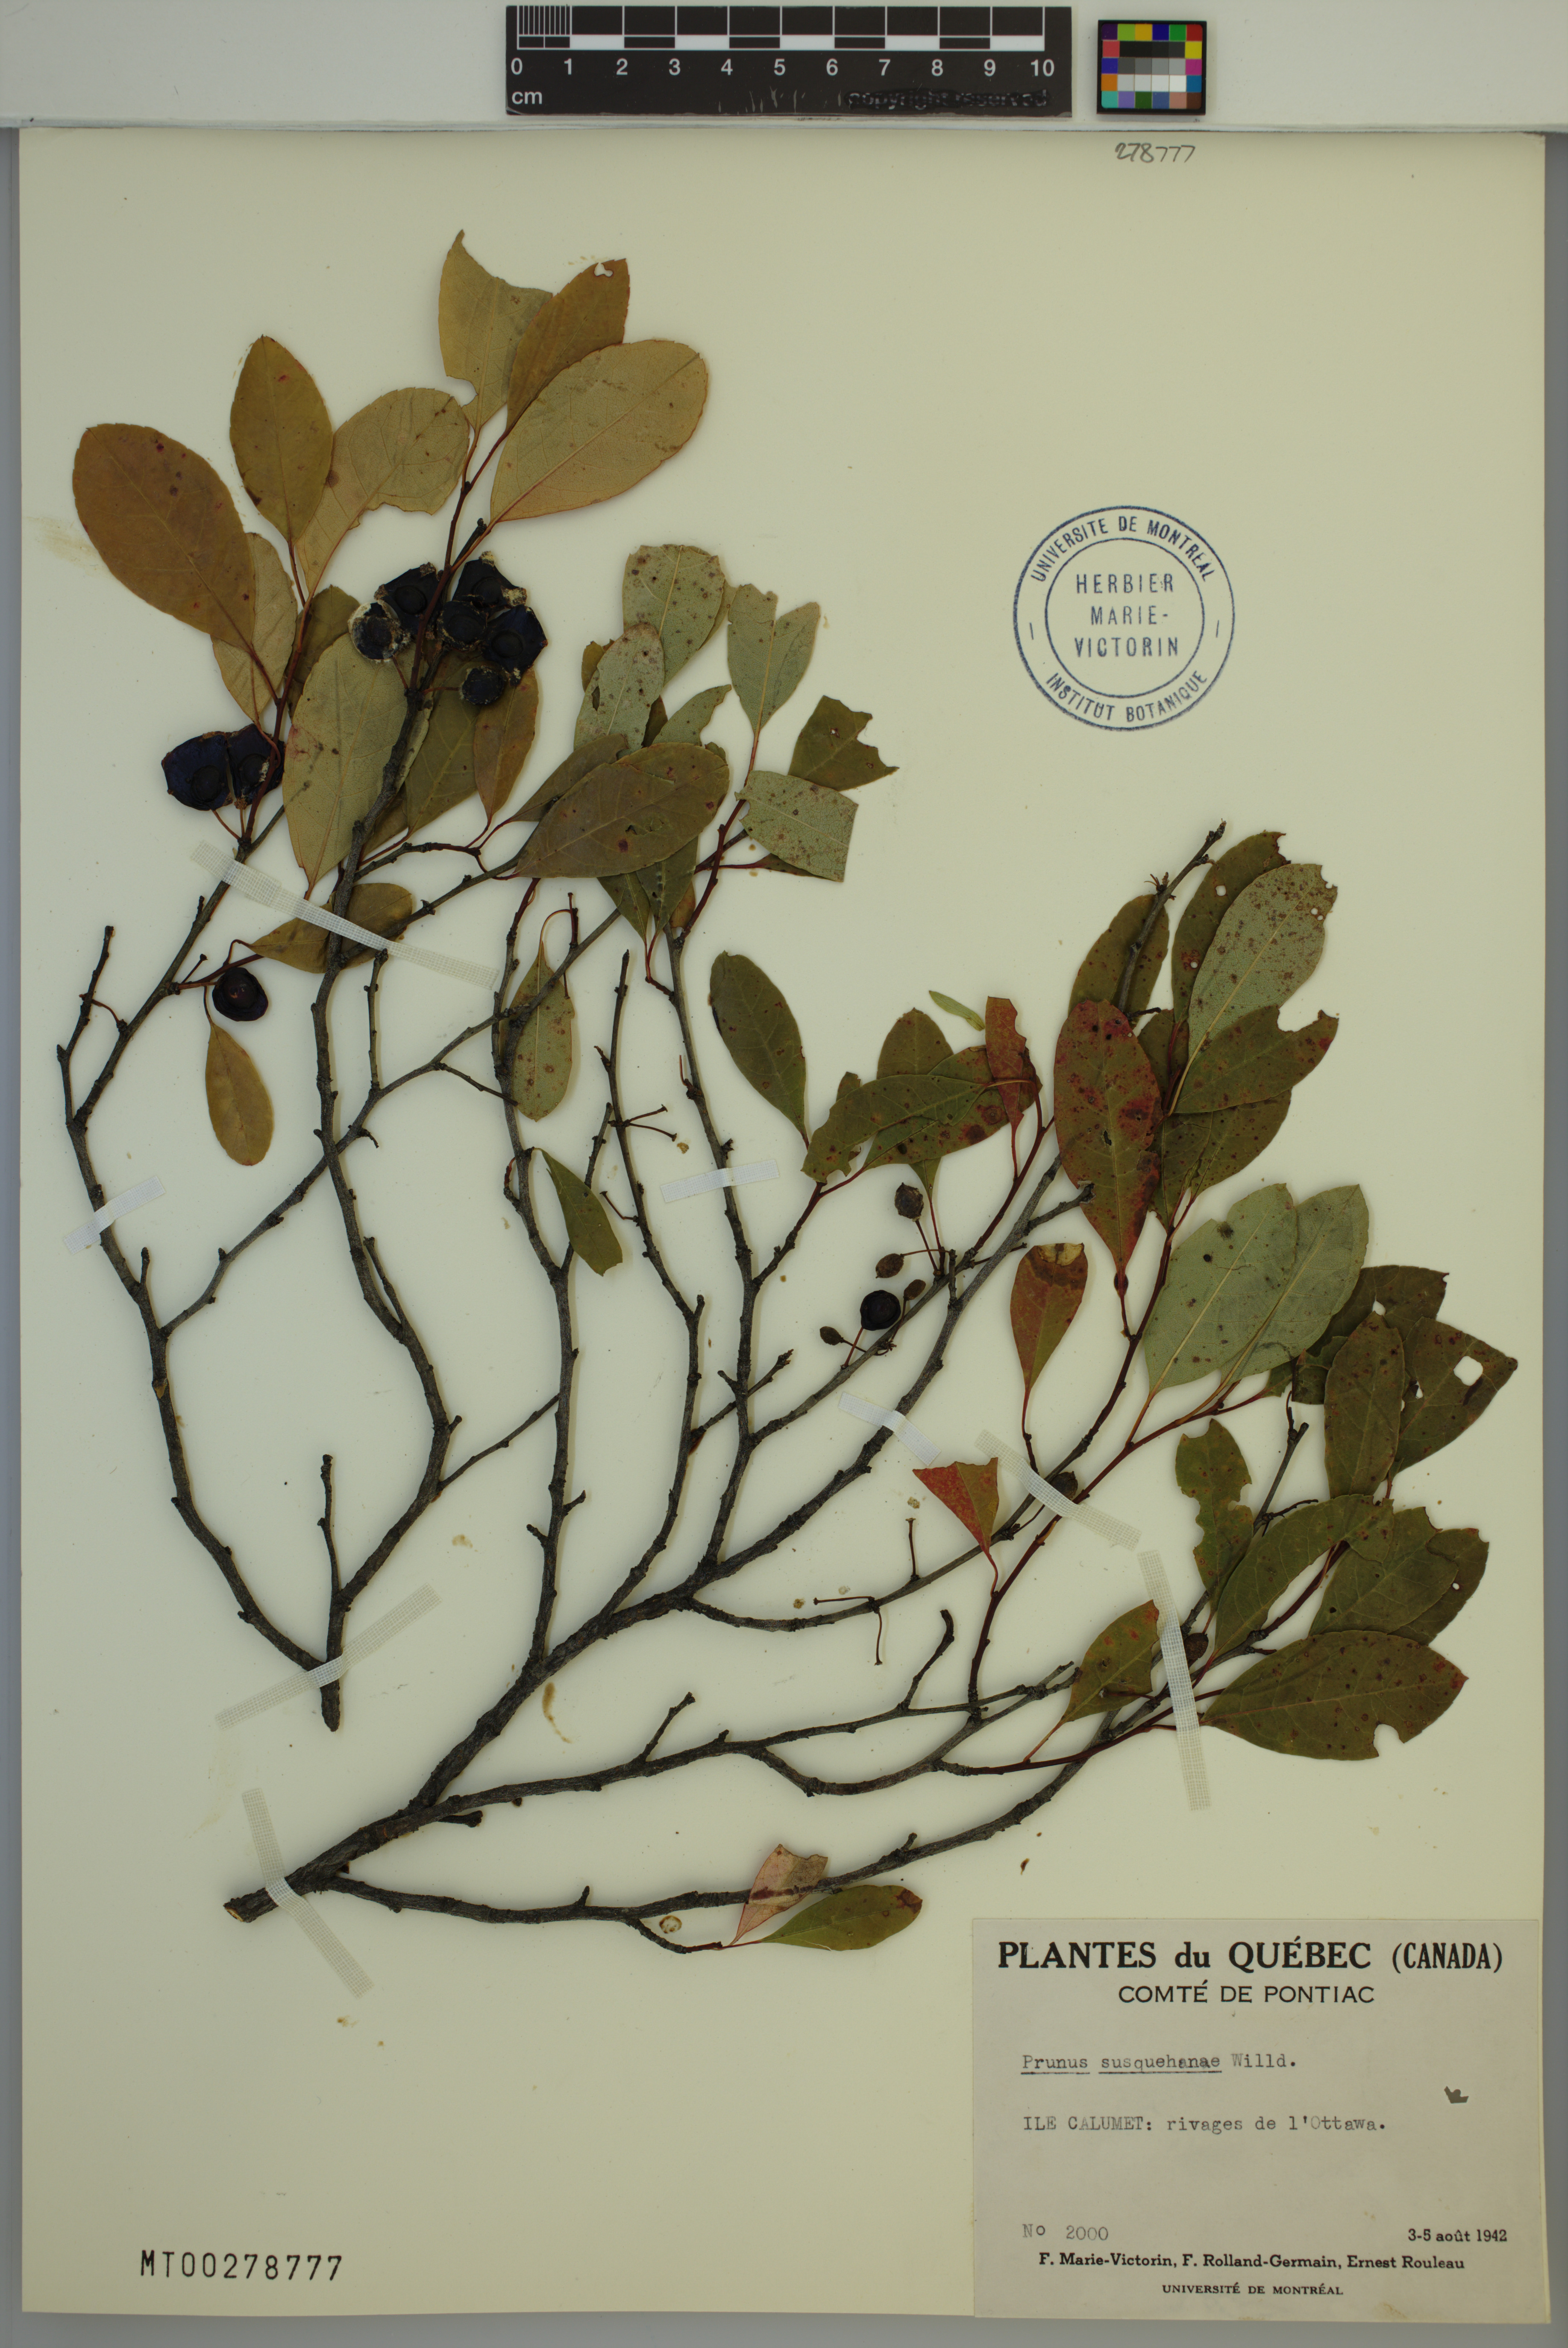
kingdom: Plantae
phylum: Tracheophyta
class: Magnoliopsida
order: Rosales
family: Rosaceae
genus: Prunus
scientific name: Prunus susquehanae
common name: Sesquehana sandcherry
